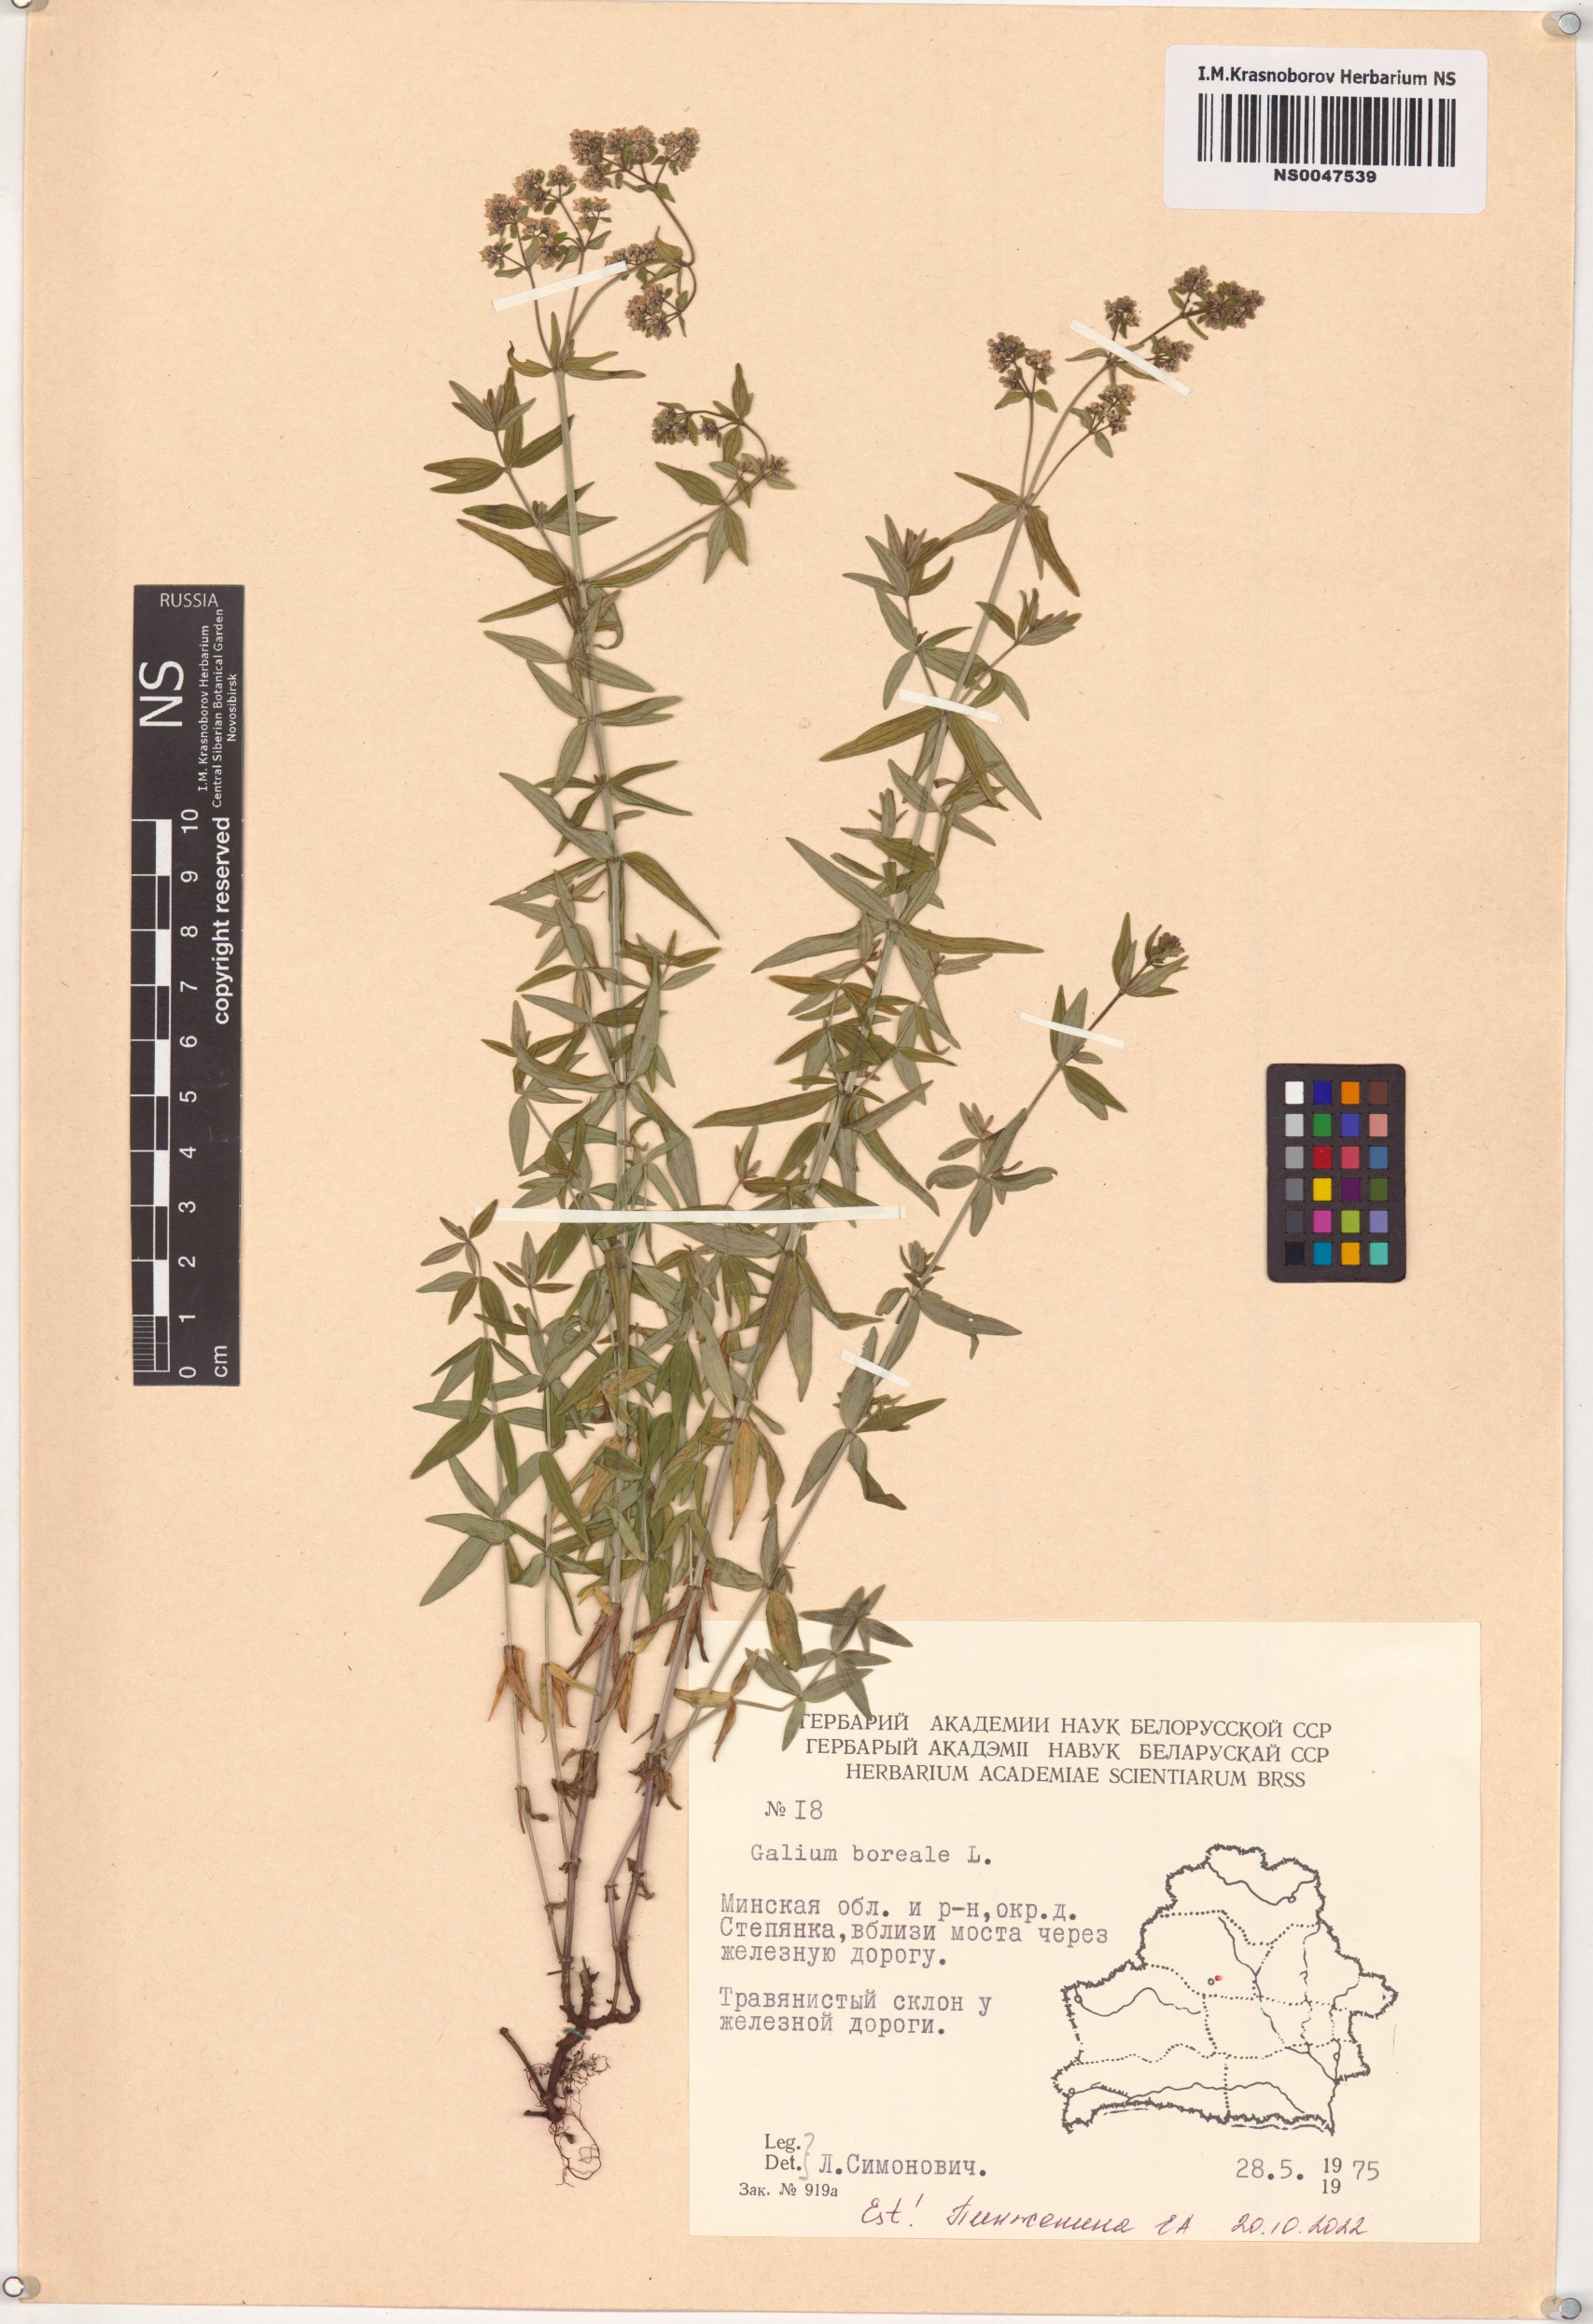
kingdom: Plantae
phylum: Tracheophyta
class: Magnoliopsida
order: Gentianales
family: Rubiaceae
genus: Galium
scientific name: Galium boreale
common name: Northern bedstraw
